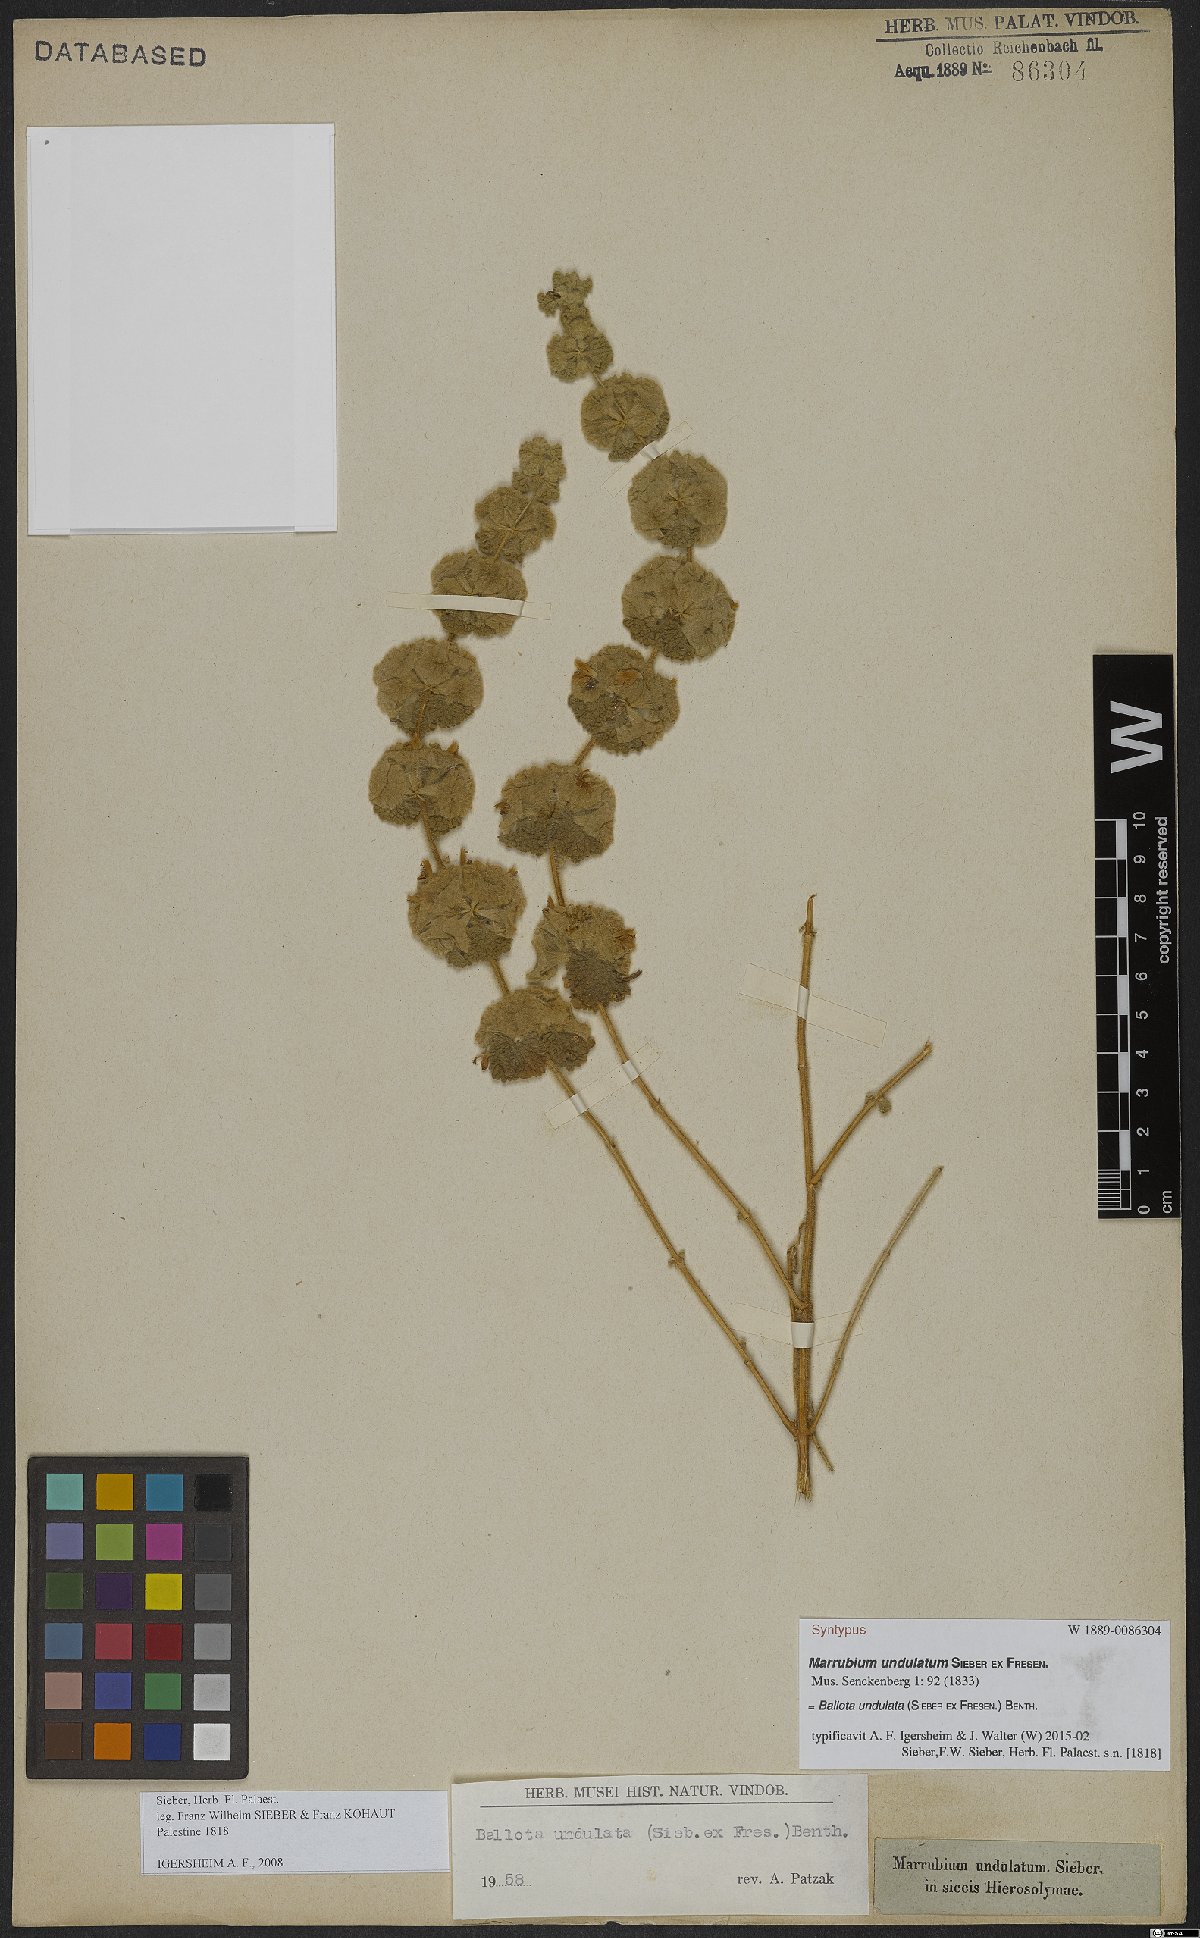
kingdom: Plantae
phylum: Tracheophyta
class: Magnoliopsida
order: Lamiales
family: Lamiaceae
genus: Pseudodictamnus
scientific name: Pseudodictamnus undulatus
